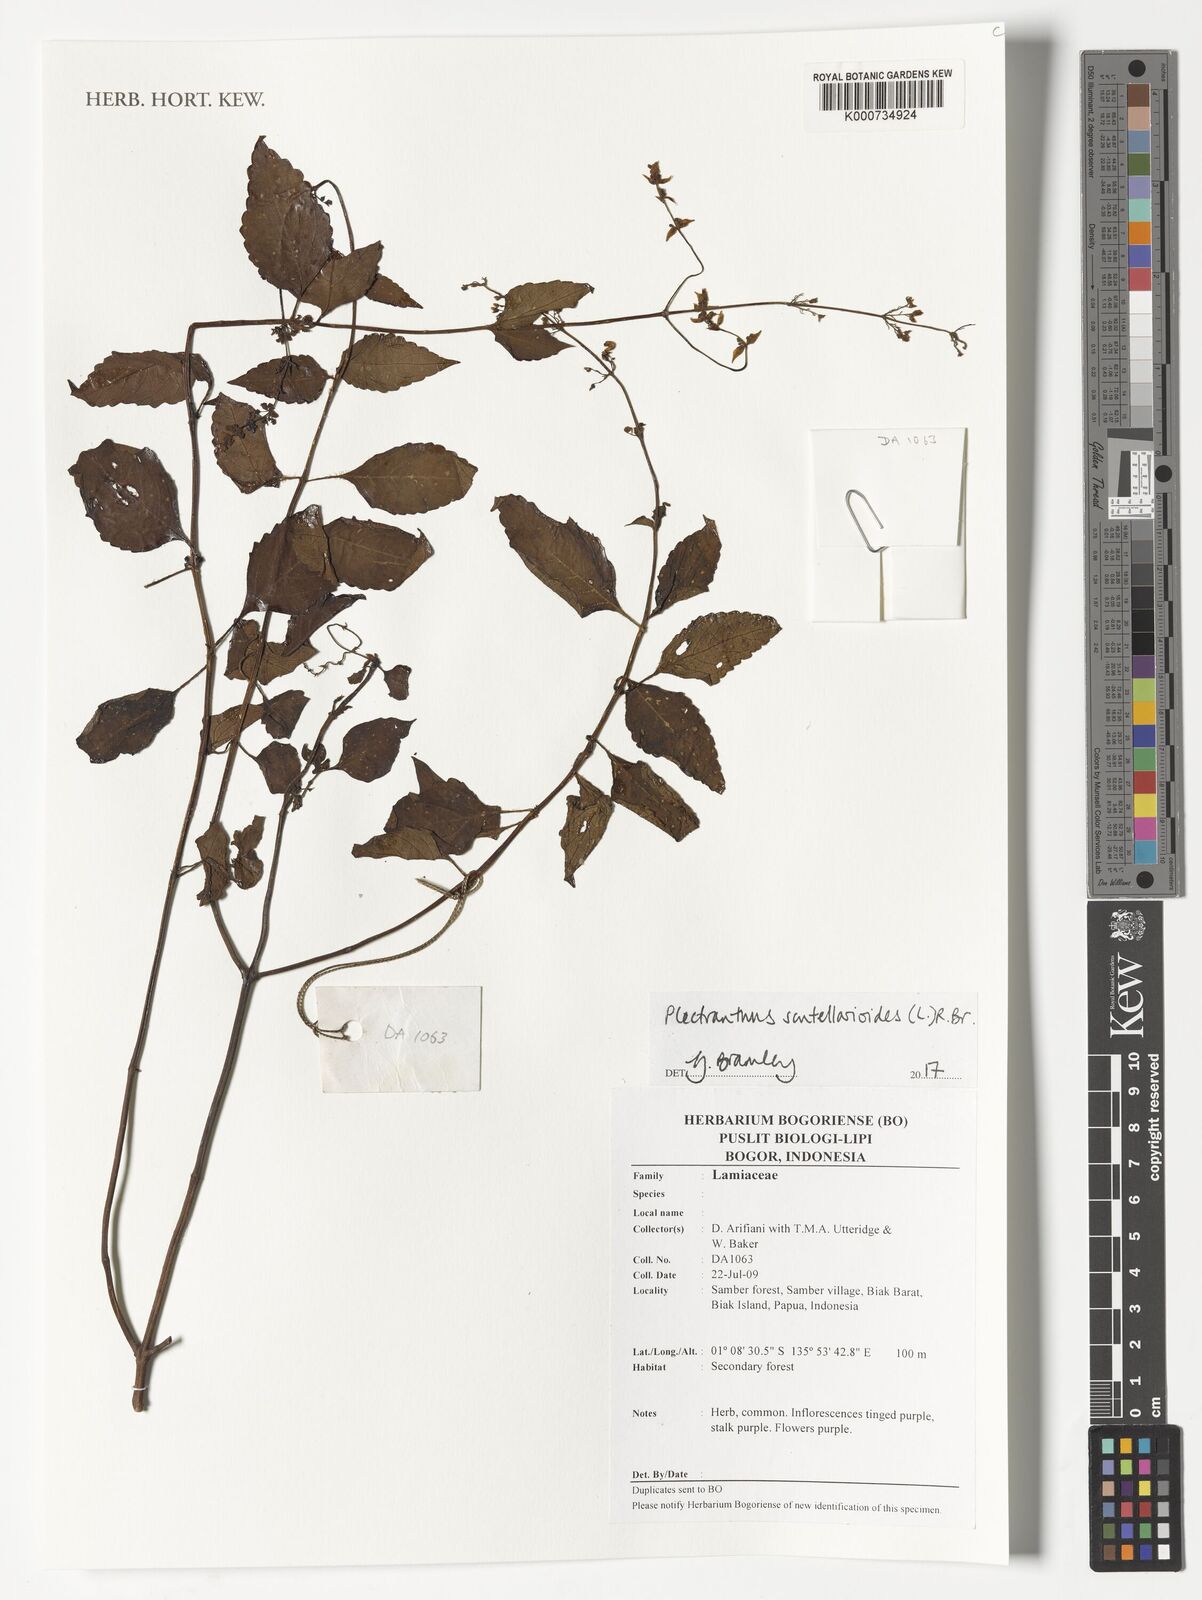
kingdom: Plantae
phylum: Tracheophyta
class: Magnoliopsida
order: Lamiales
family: Lamiaceae
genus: Coleus
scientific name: Coleus scutellarioides
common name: Coleus
